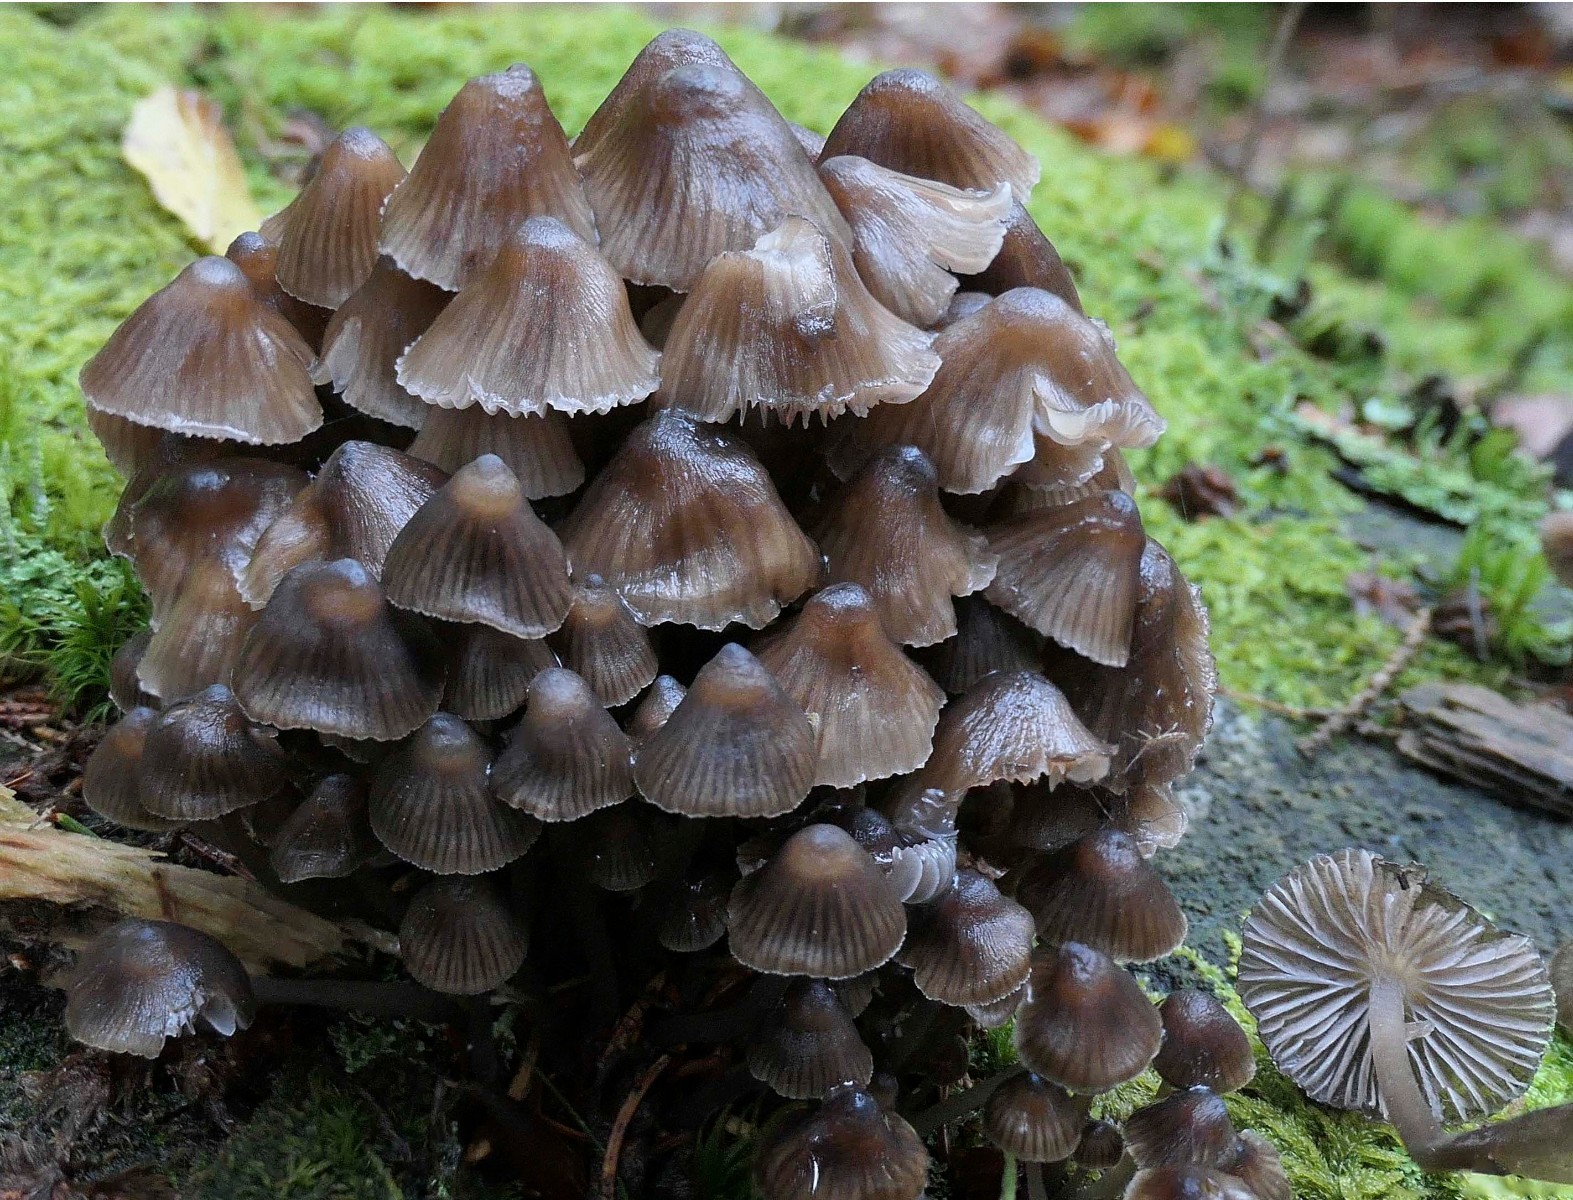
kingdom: Fungi
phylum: Basidiomycota
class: Agaricomycetes
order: Agaricales
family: Mycenaceae
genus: Mycena
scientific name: Mycena stipata
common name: stinkende huesvamp
